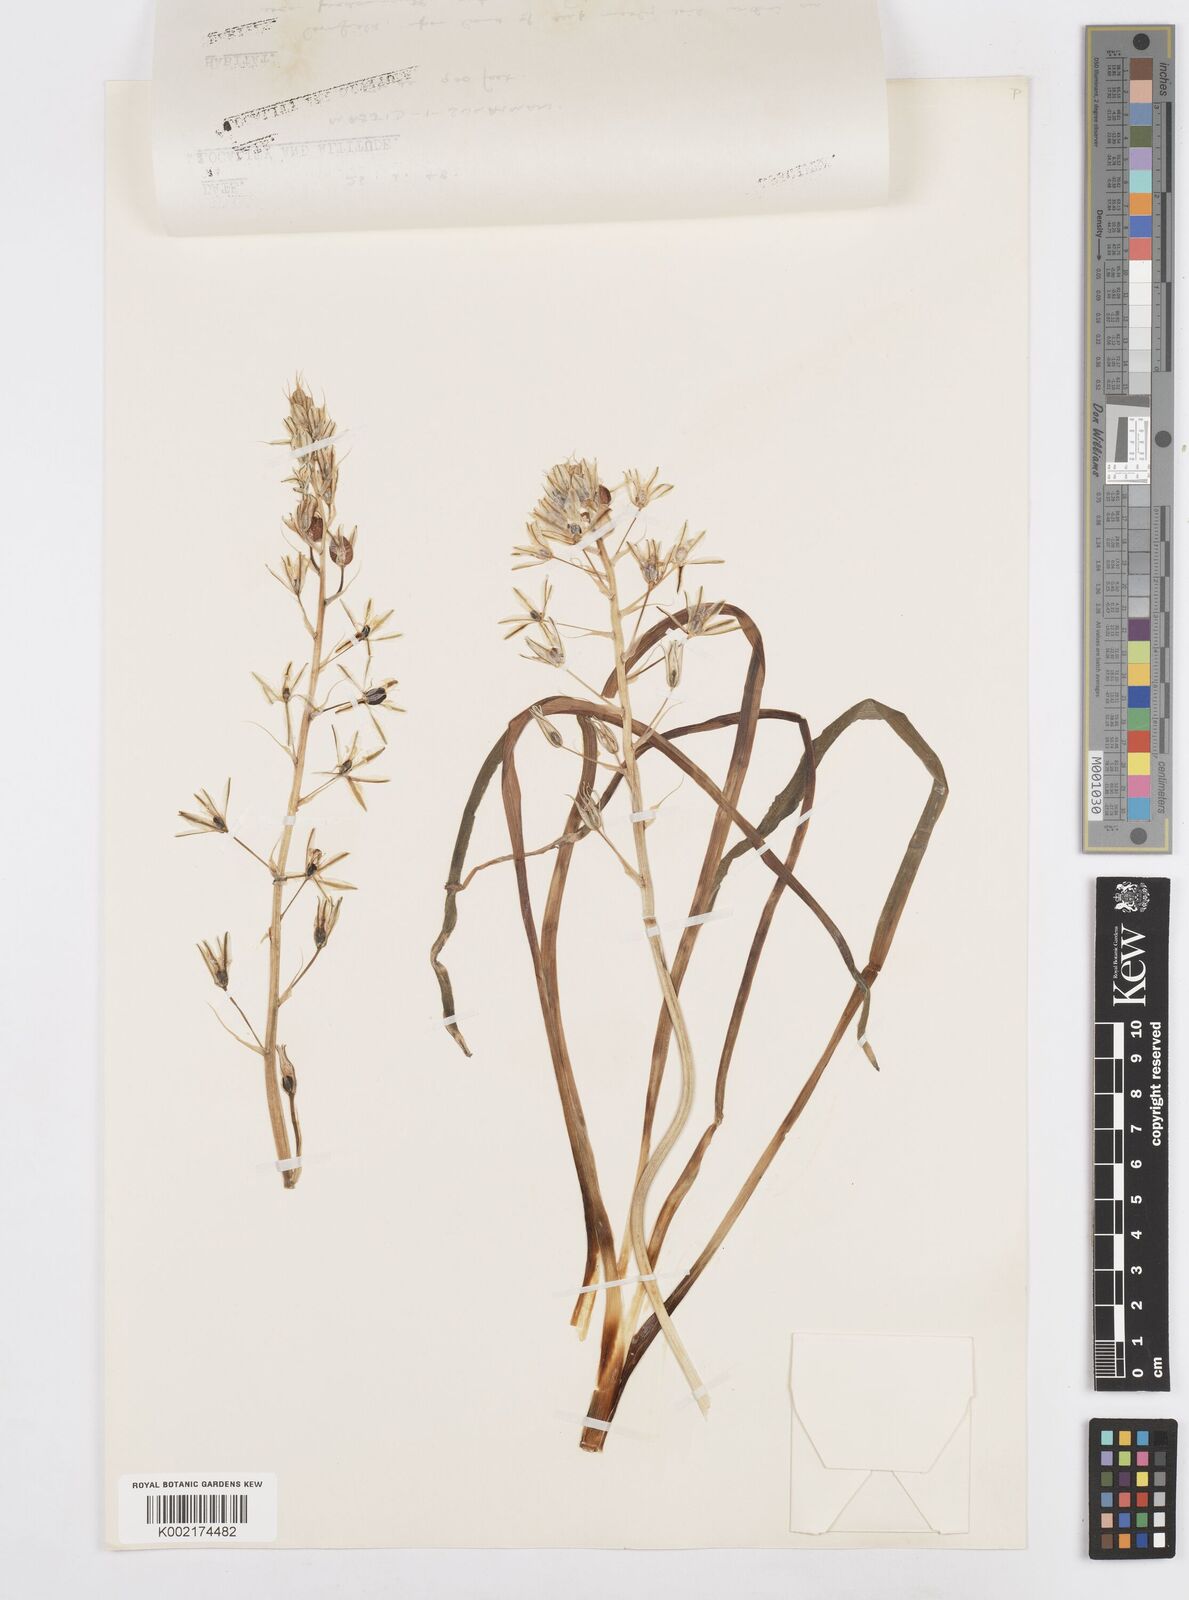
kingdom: Plantae
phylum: Tracheophyta
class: Liliopsida
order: Asparagales
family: Asparagaceae
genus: Ornithogalum
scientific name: Ornithogalum narbonense
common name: Bath-asparagus
